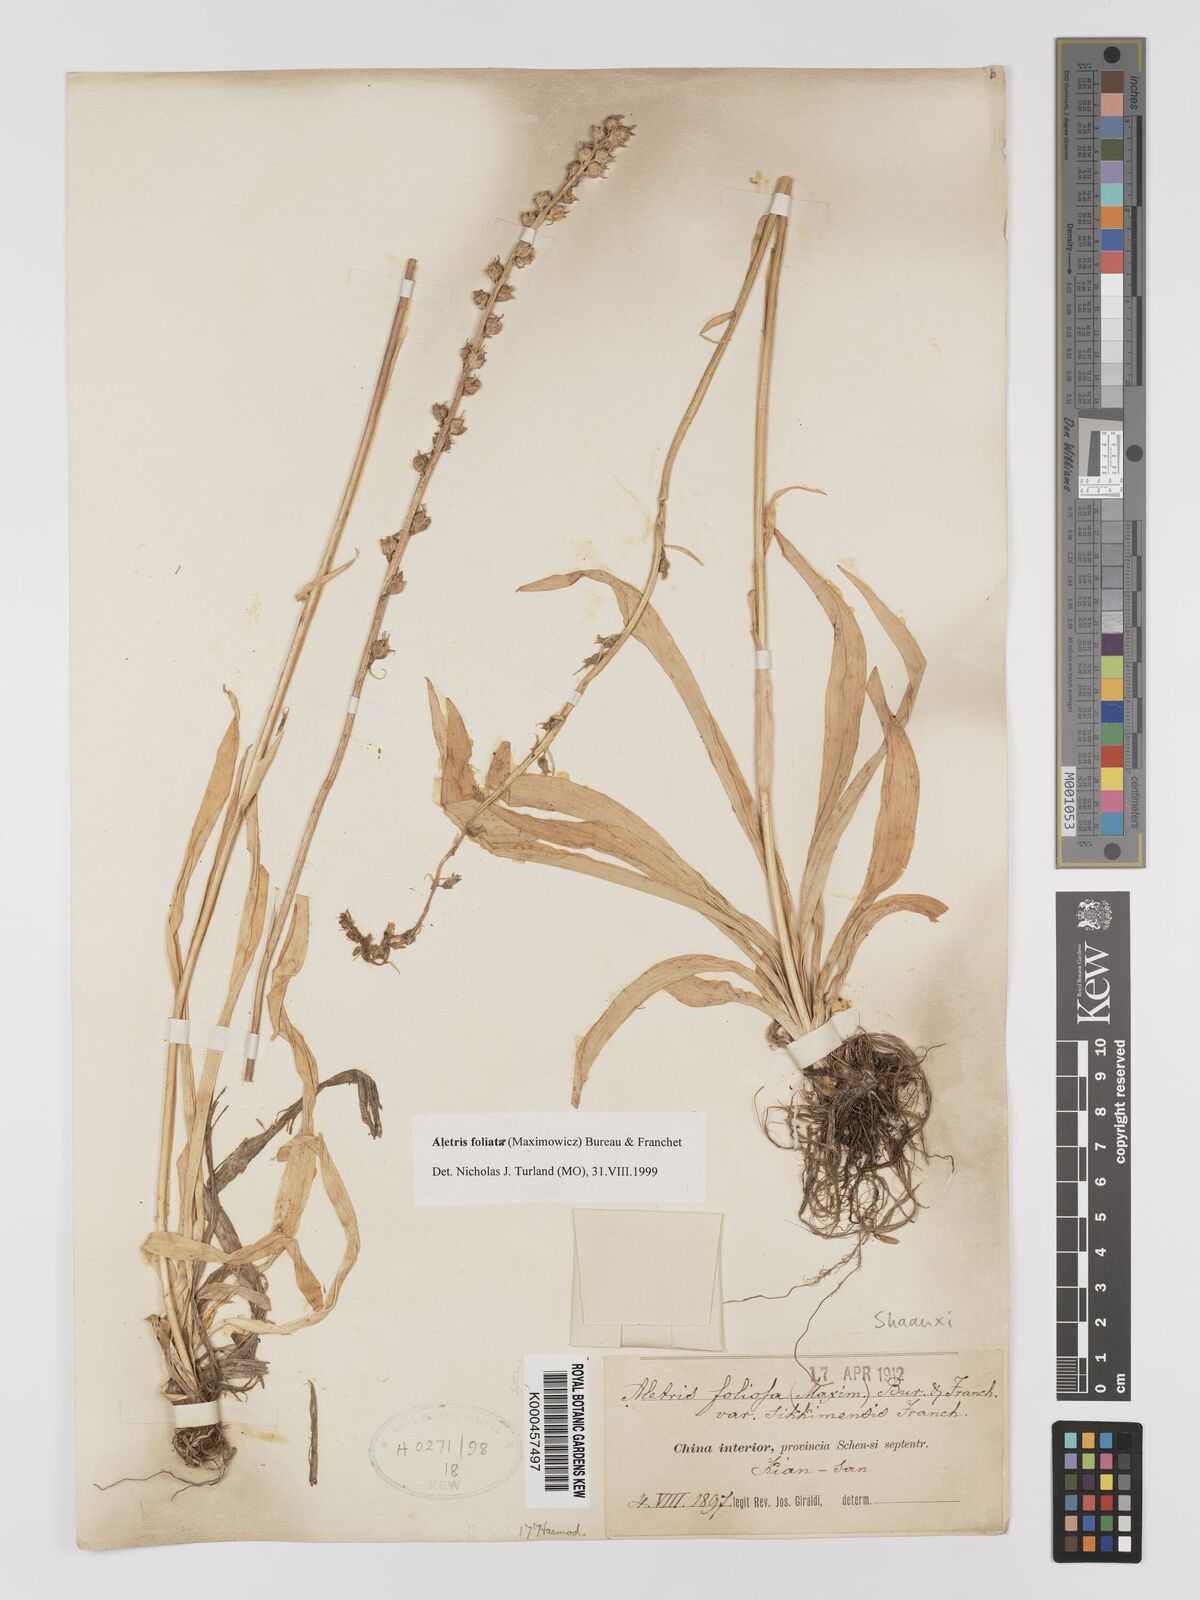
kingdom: Plantae
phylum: Tracheophyta
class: Liliopsida
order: Dioscoreales
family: Nartheciaceae
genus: Aletris
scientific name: Aletris
